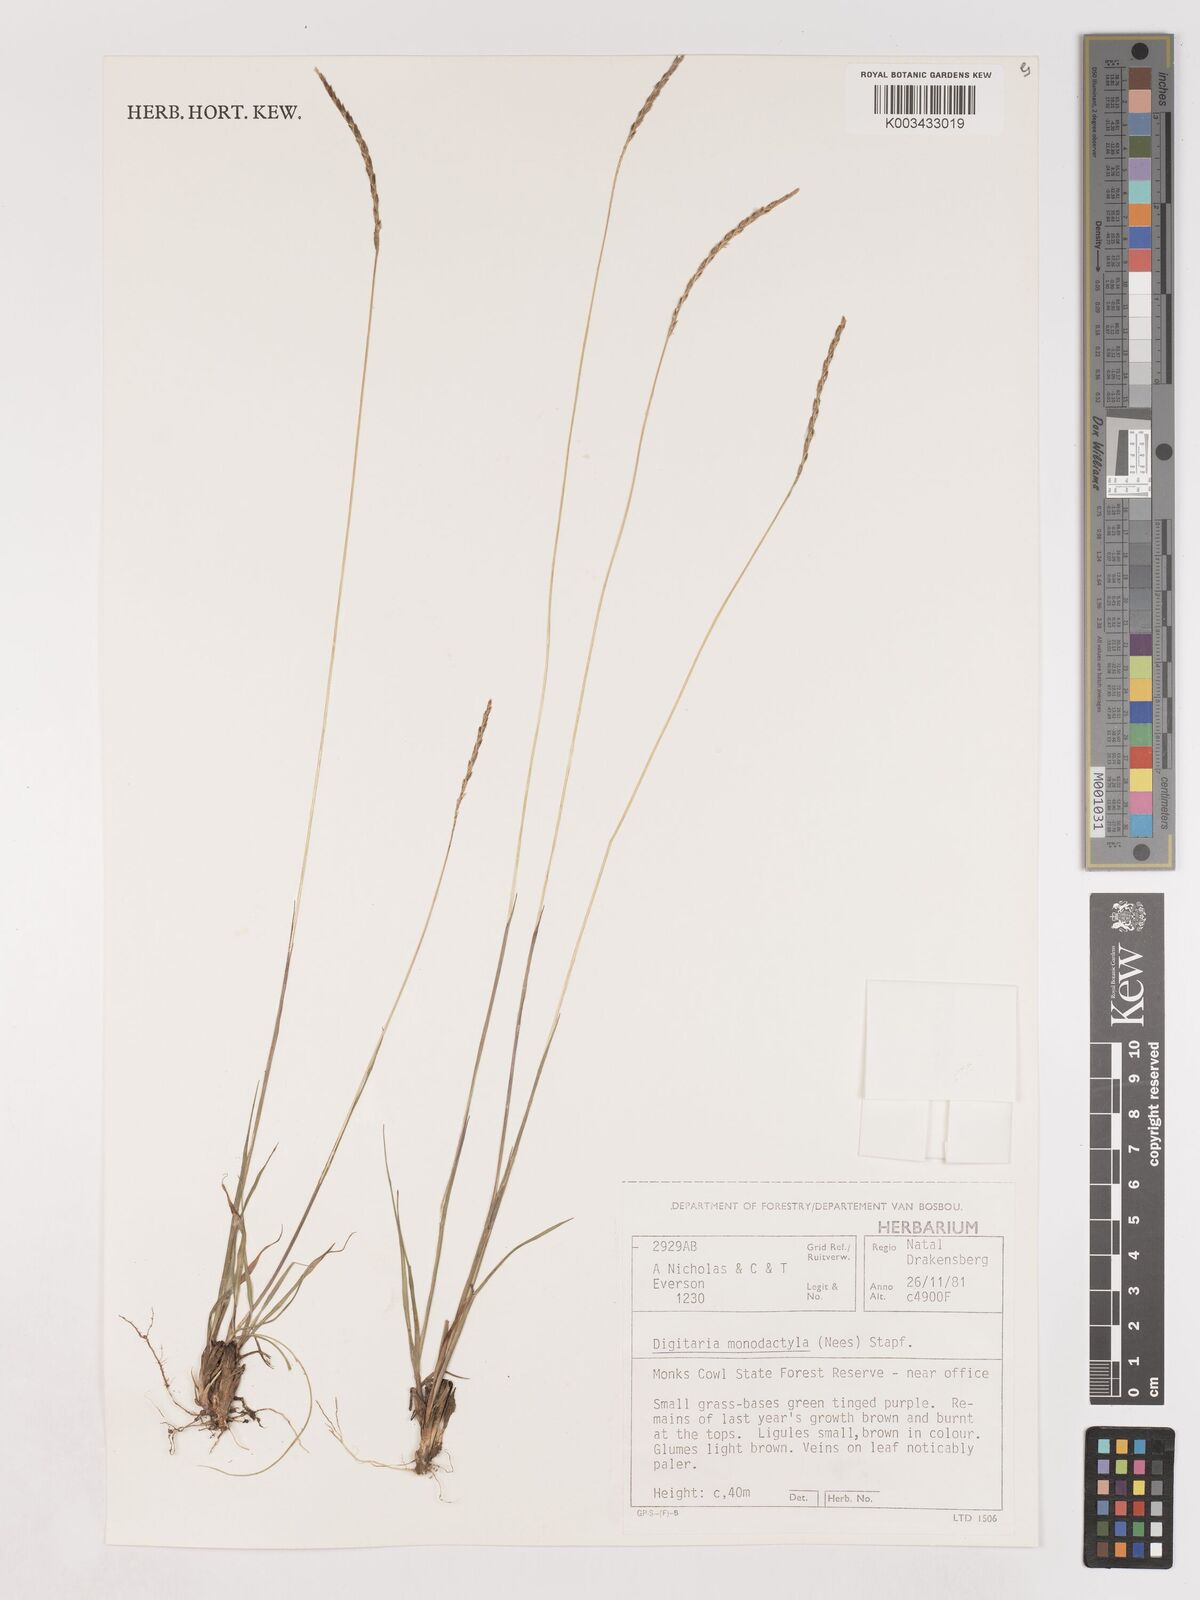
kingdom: Plantae
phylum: Tracheophyta
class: Liliopsida
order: Poales
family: Poaceae
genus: Digitaria
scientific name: Digitaria monodactyla
